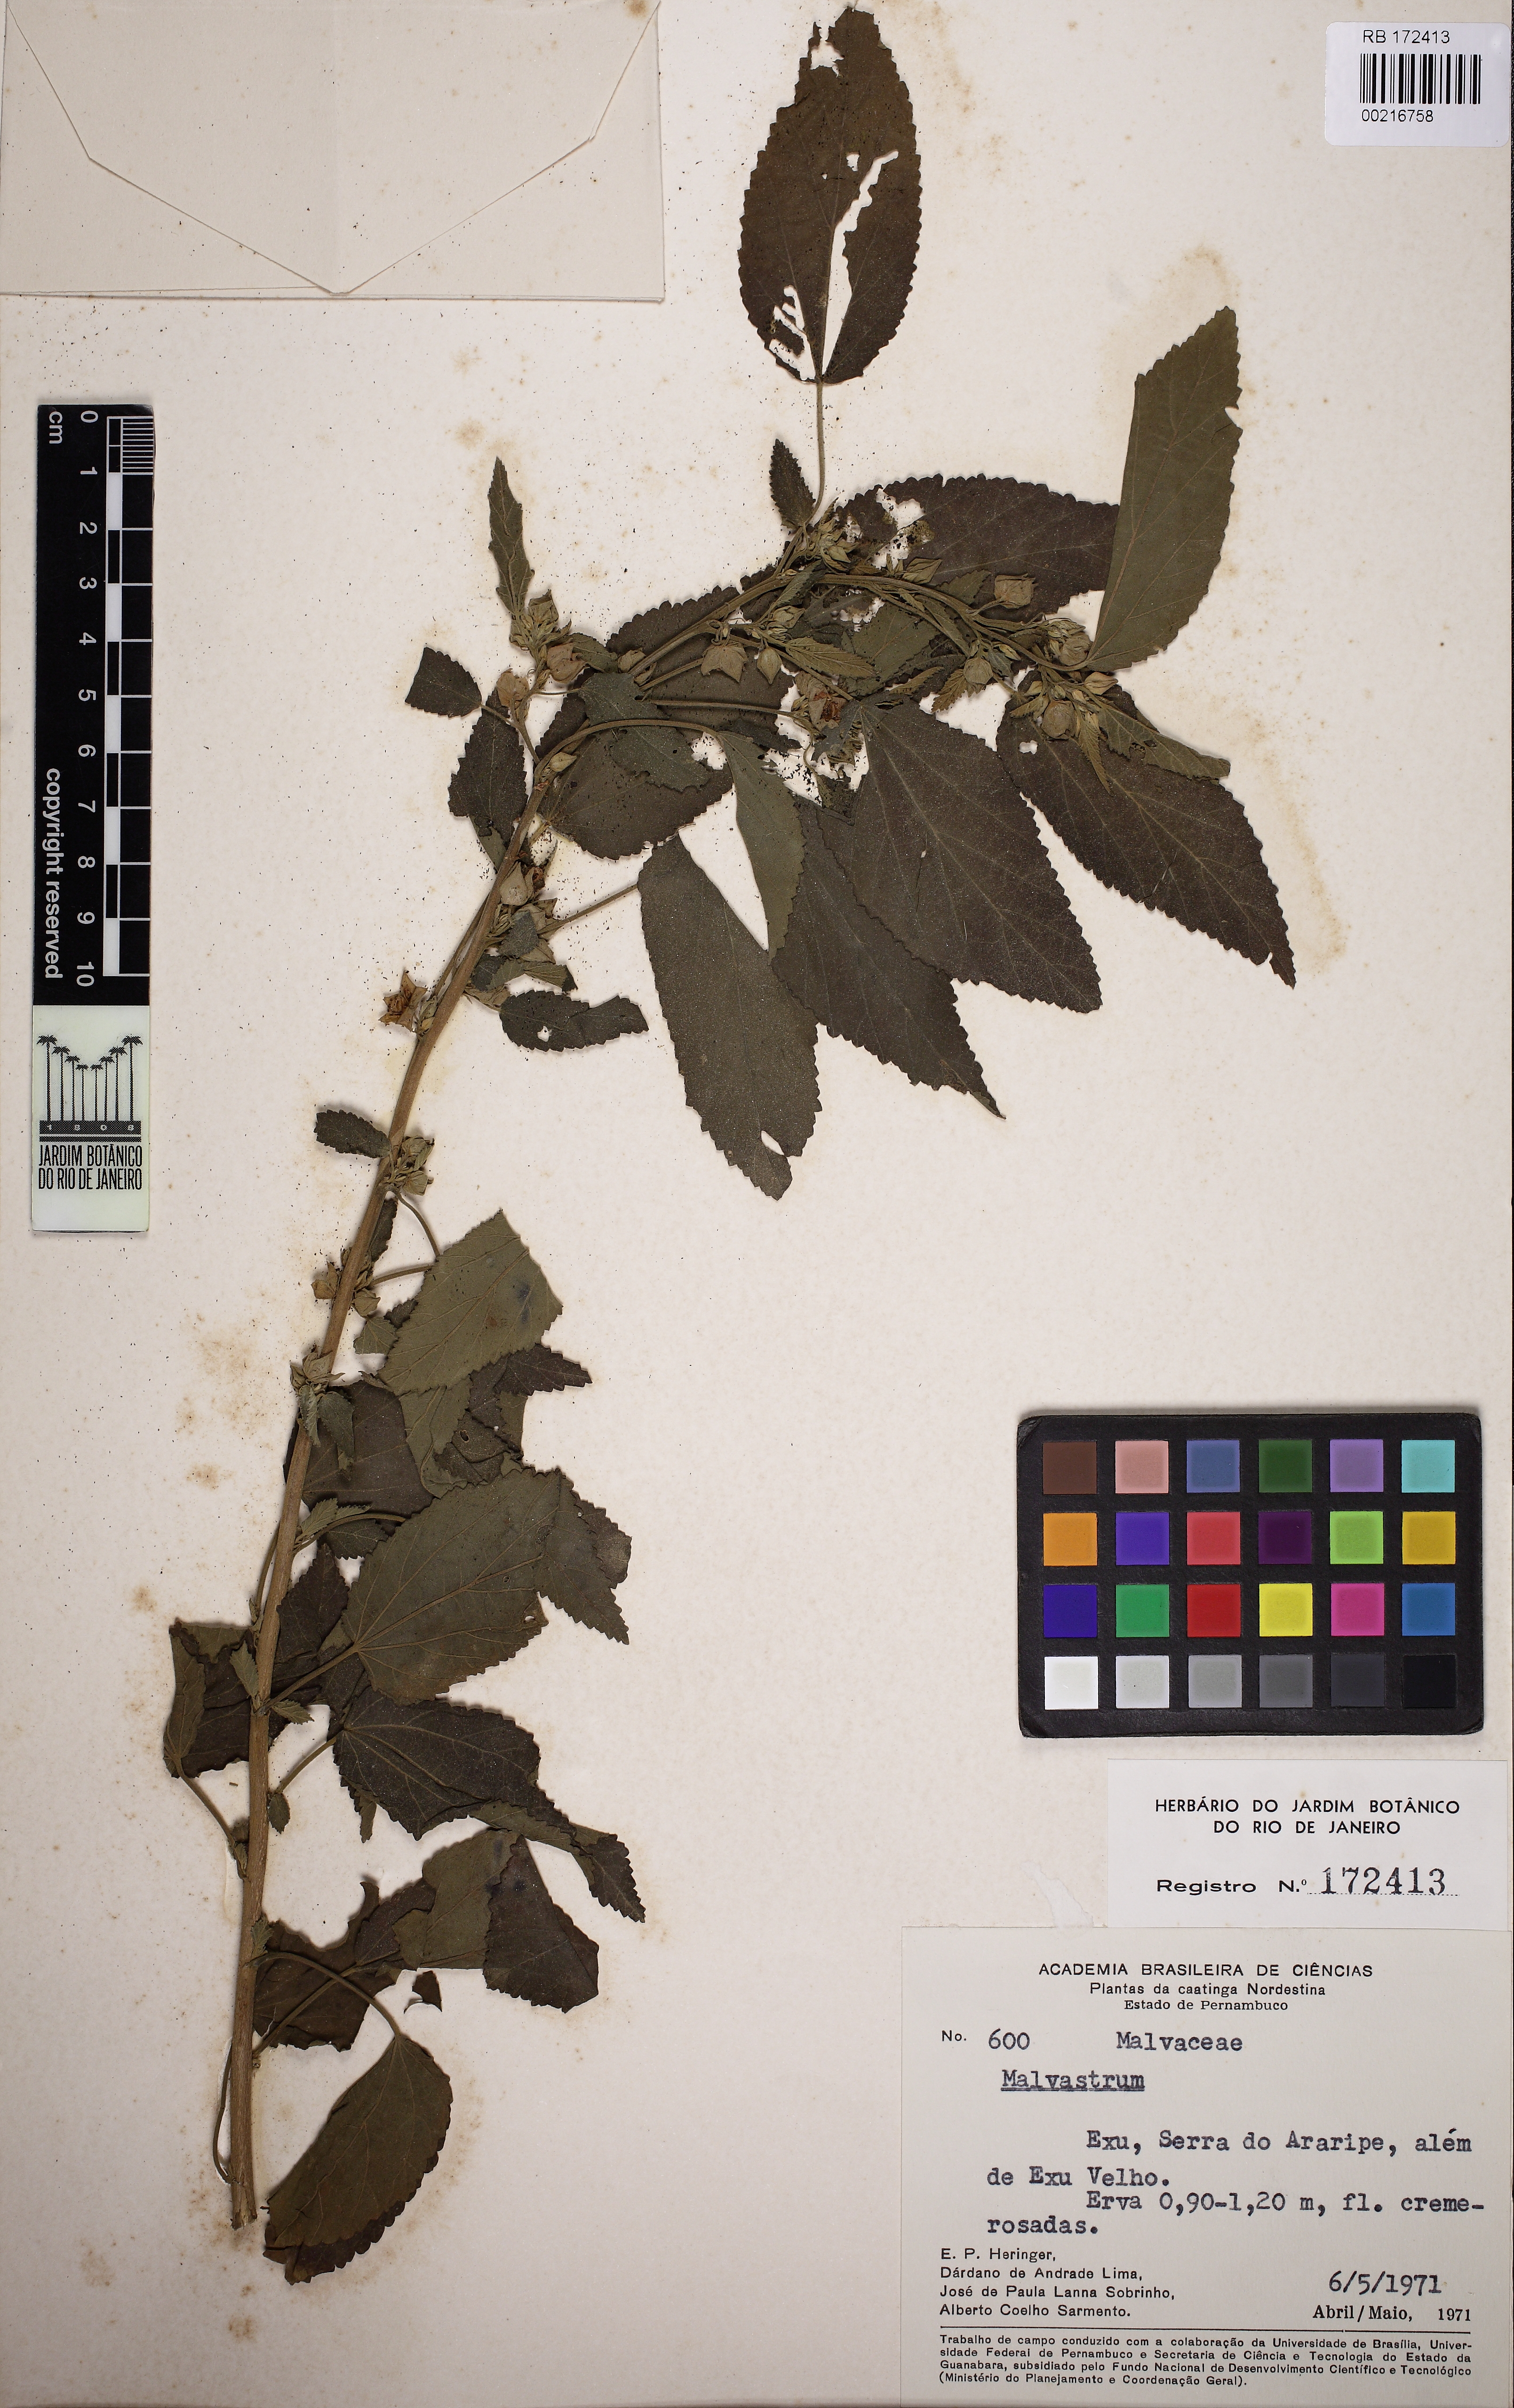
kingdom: Plantae
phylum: Tracheophyta
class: Magnoliopsida
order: Malvales
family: Malvaceae
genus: Malvastrum
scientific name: Malvastrum
